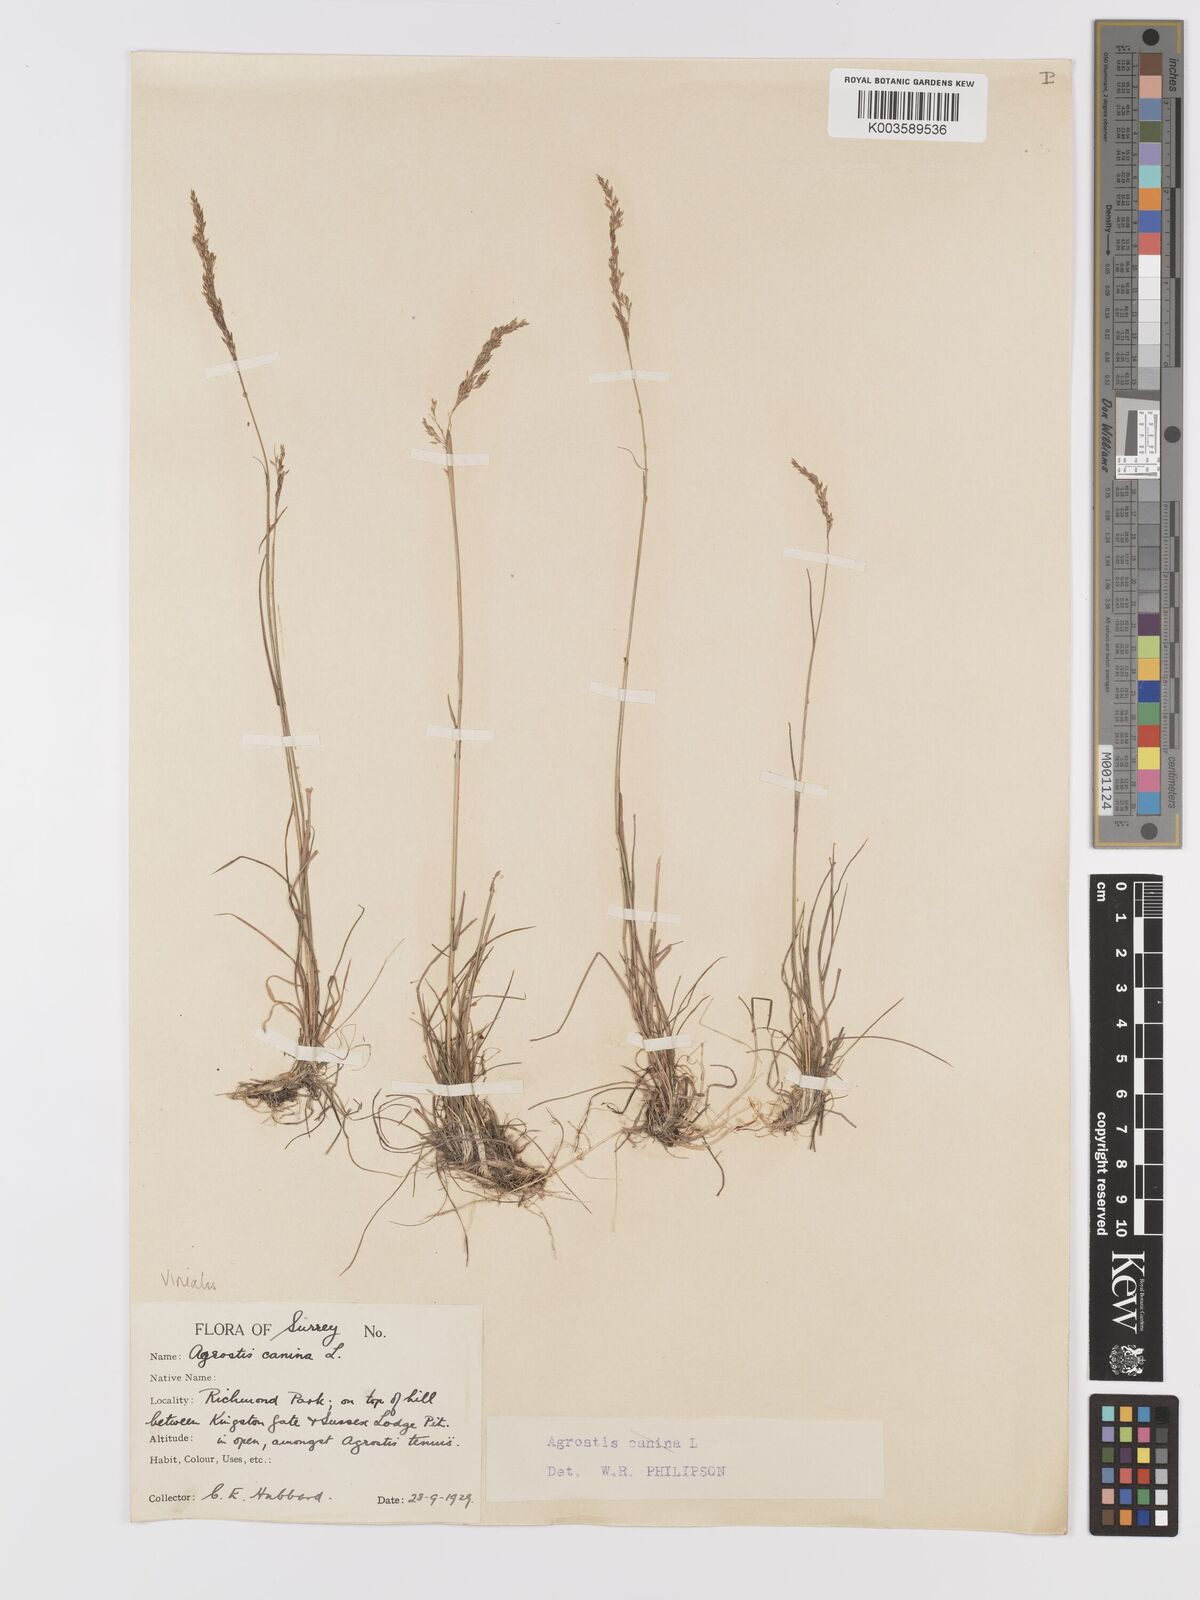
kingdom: Plantae
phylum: Tracheophyta
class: Liliopsida
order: Poales
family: Poaceae
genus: Agrostis
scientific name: Agrostis
